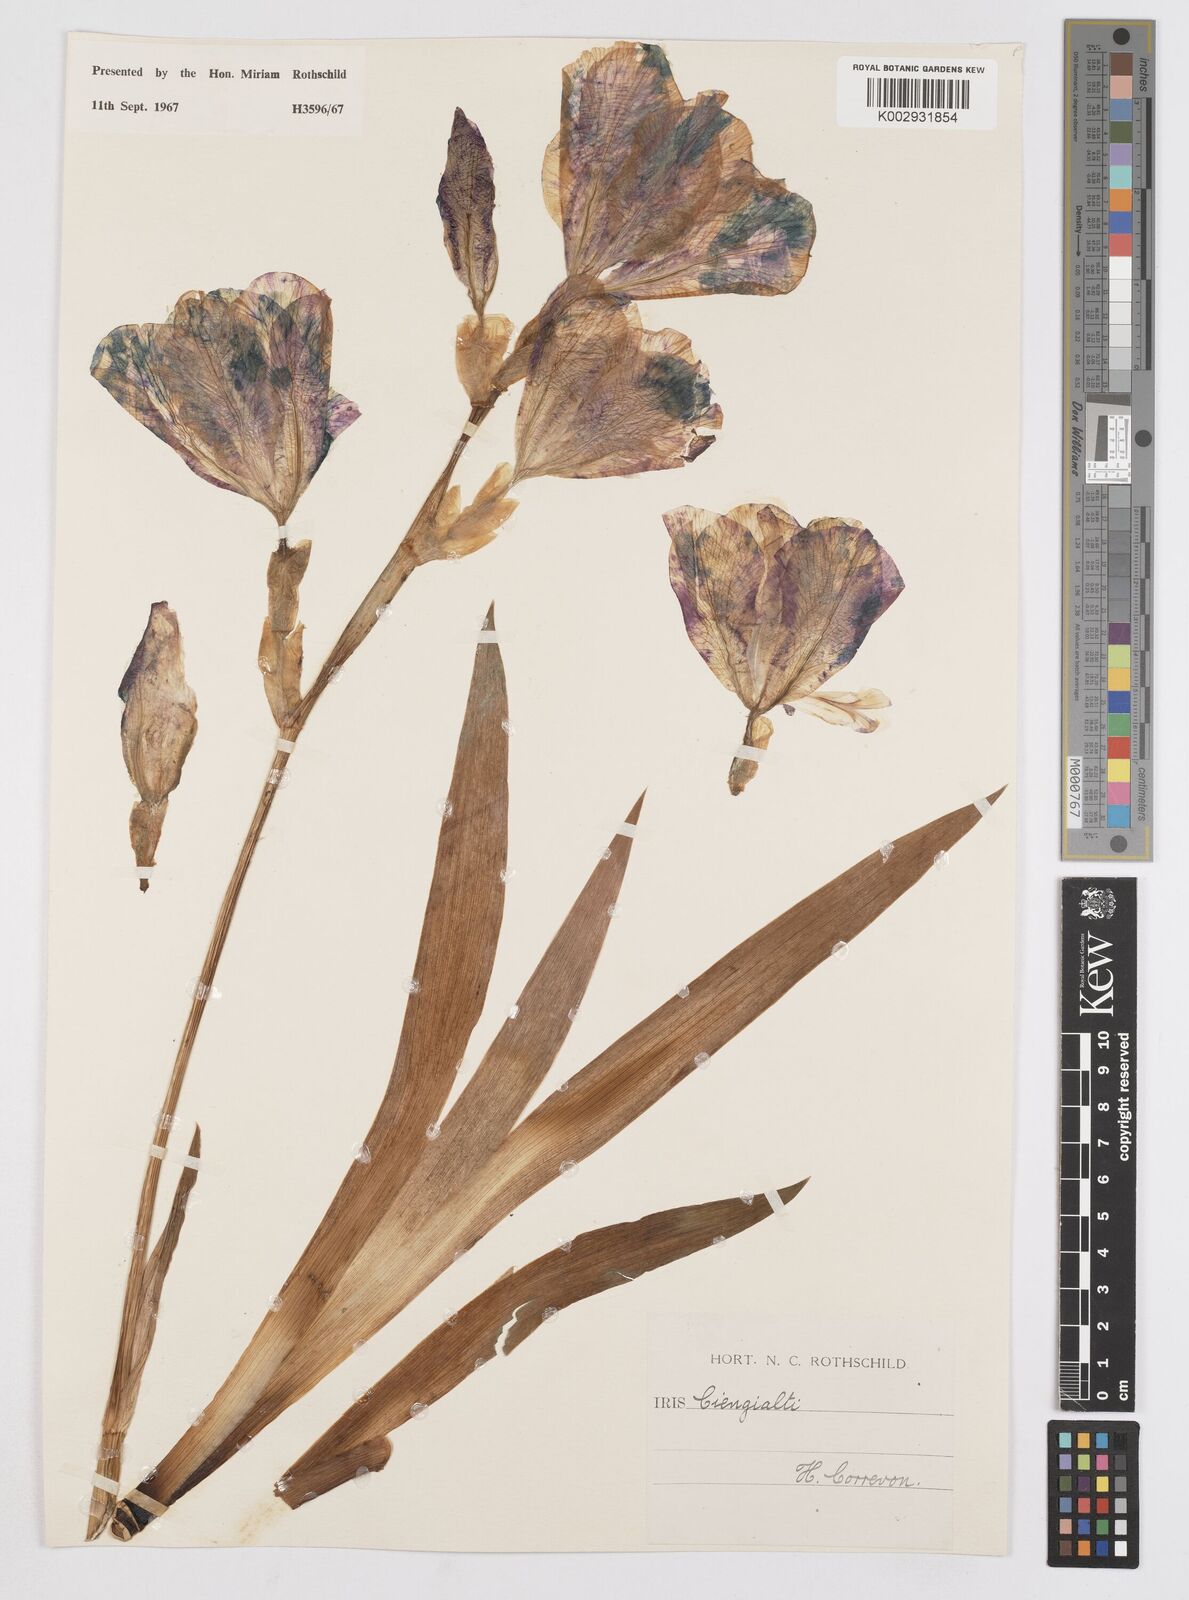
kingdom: Plantae
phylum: Tracheophyta
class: Liliopsida
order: Asparagales
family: Iridaceae
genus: Iris
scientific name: Iris pallida
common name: Sweet iris
